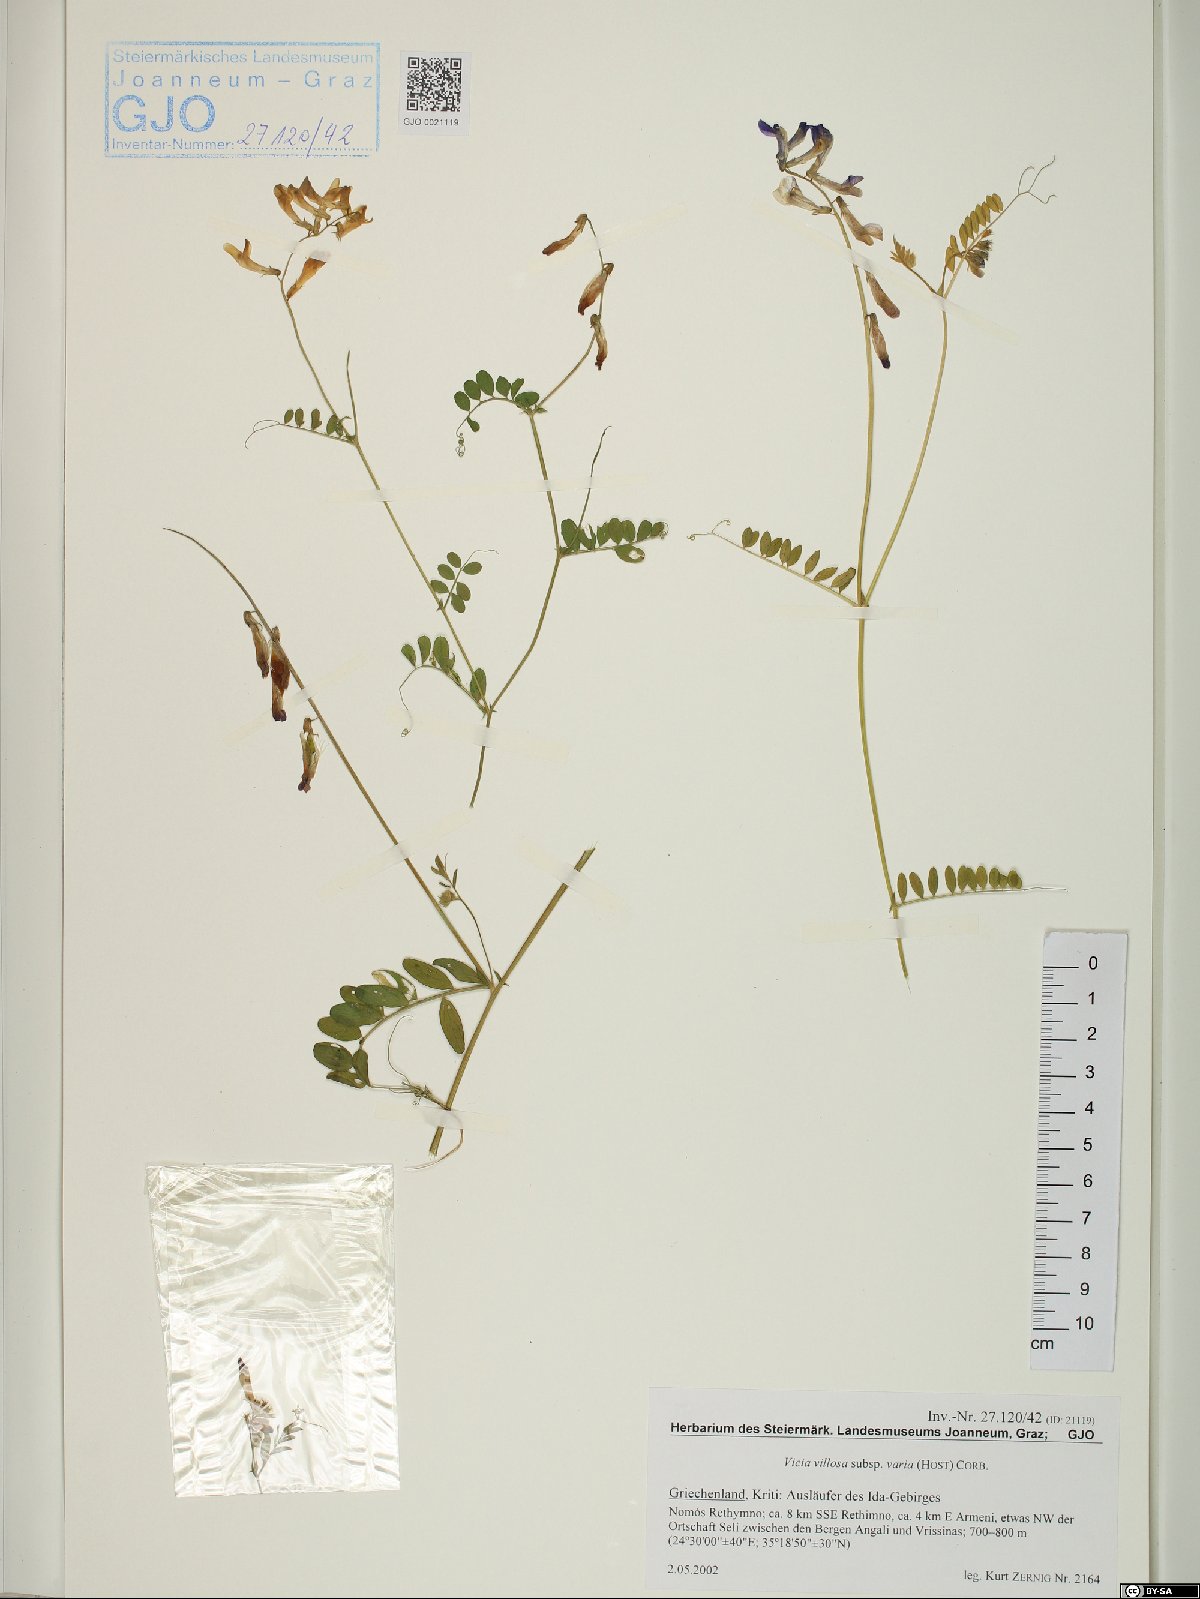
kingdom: Plantae
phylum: Tracheophyta
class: Magnoliopsida
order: Fabales
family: Fabaceae
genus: Vicia
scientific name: Vicia villosa
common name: Fodder vetch
